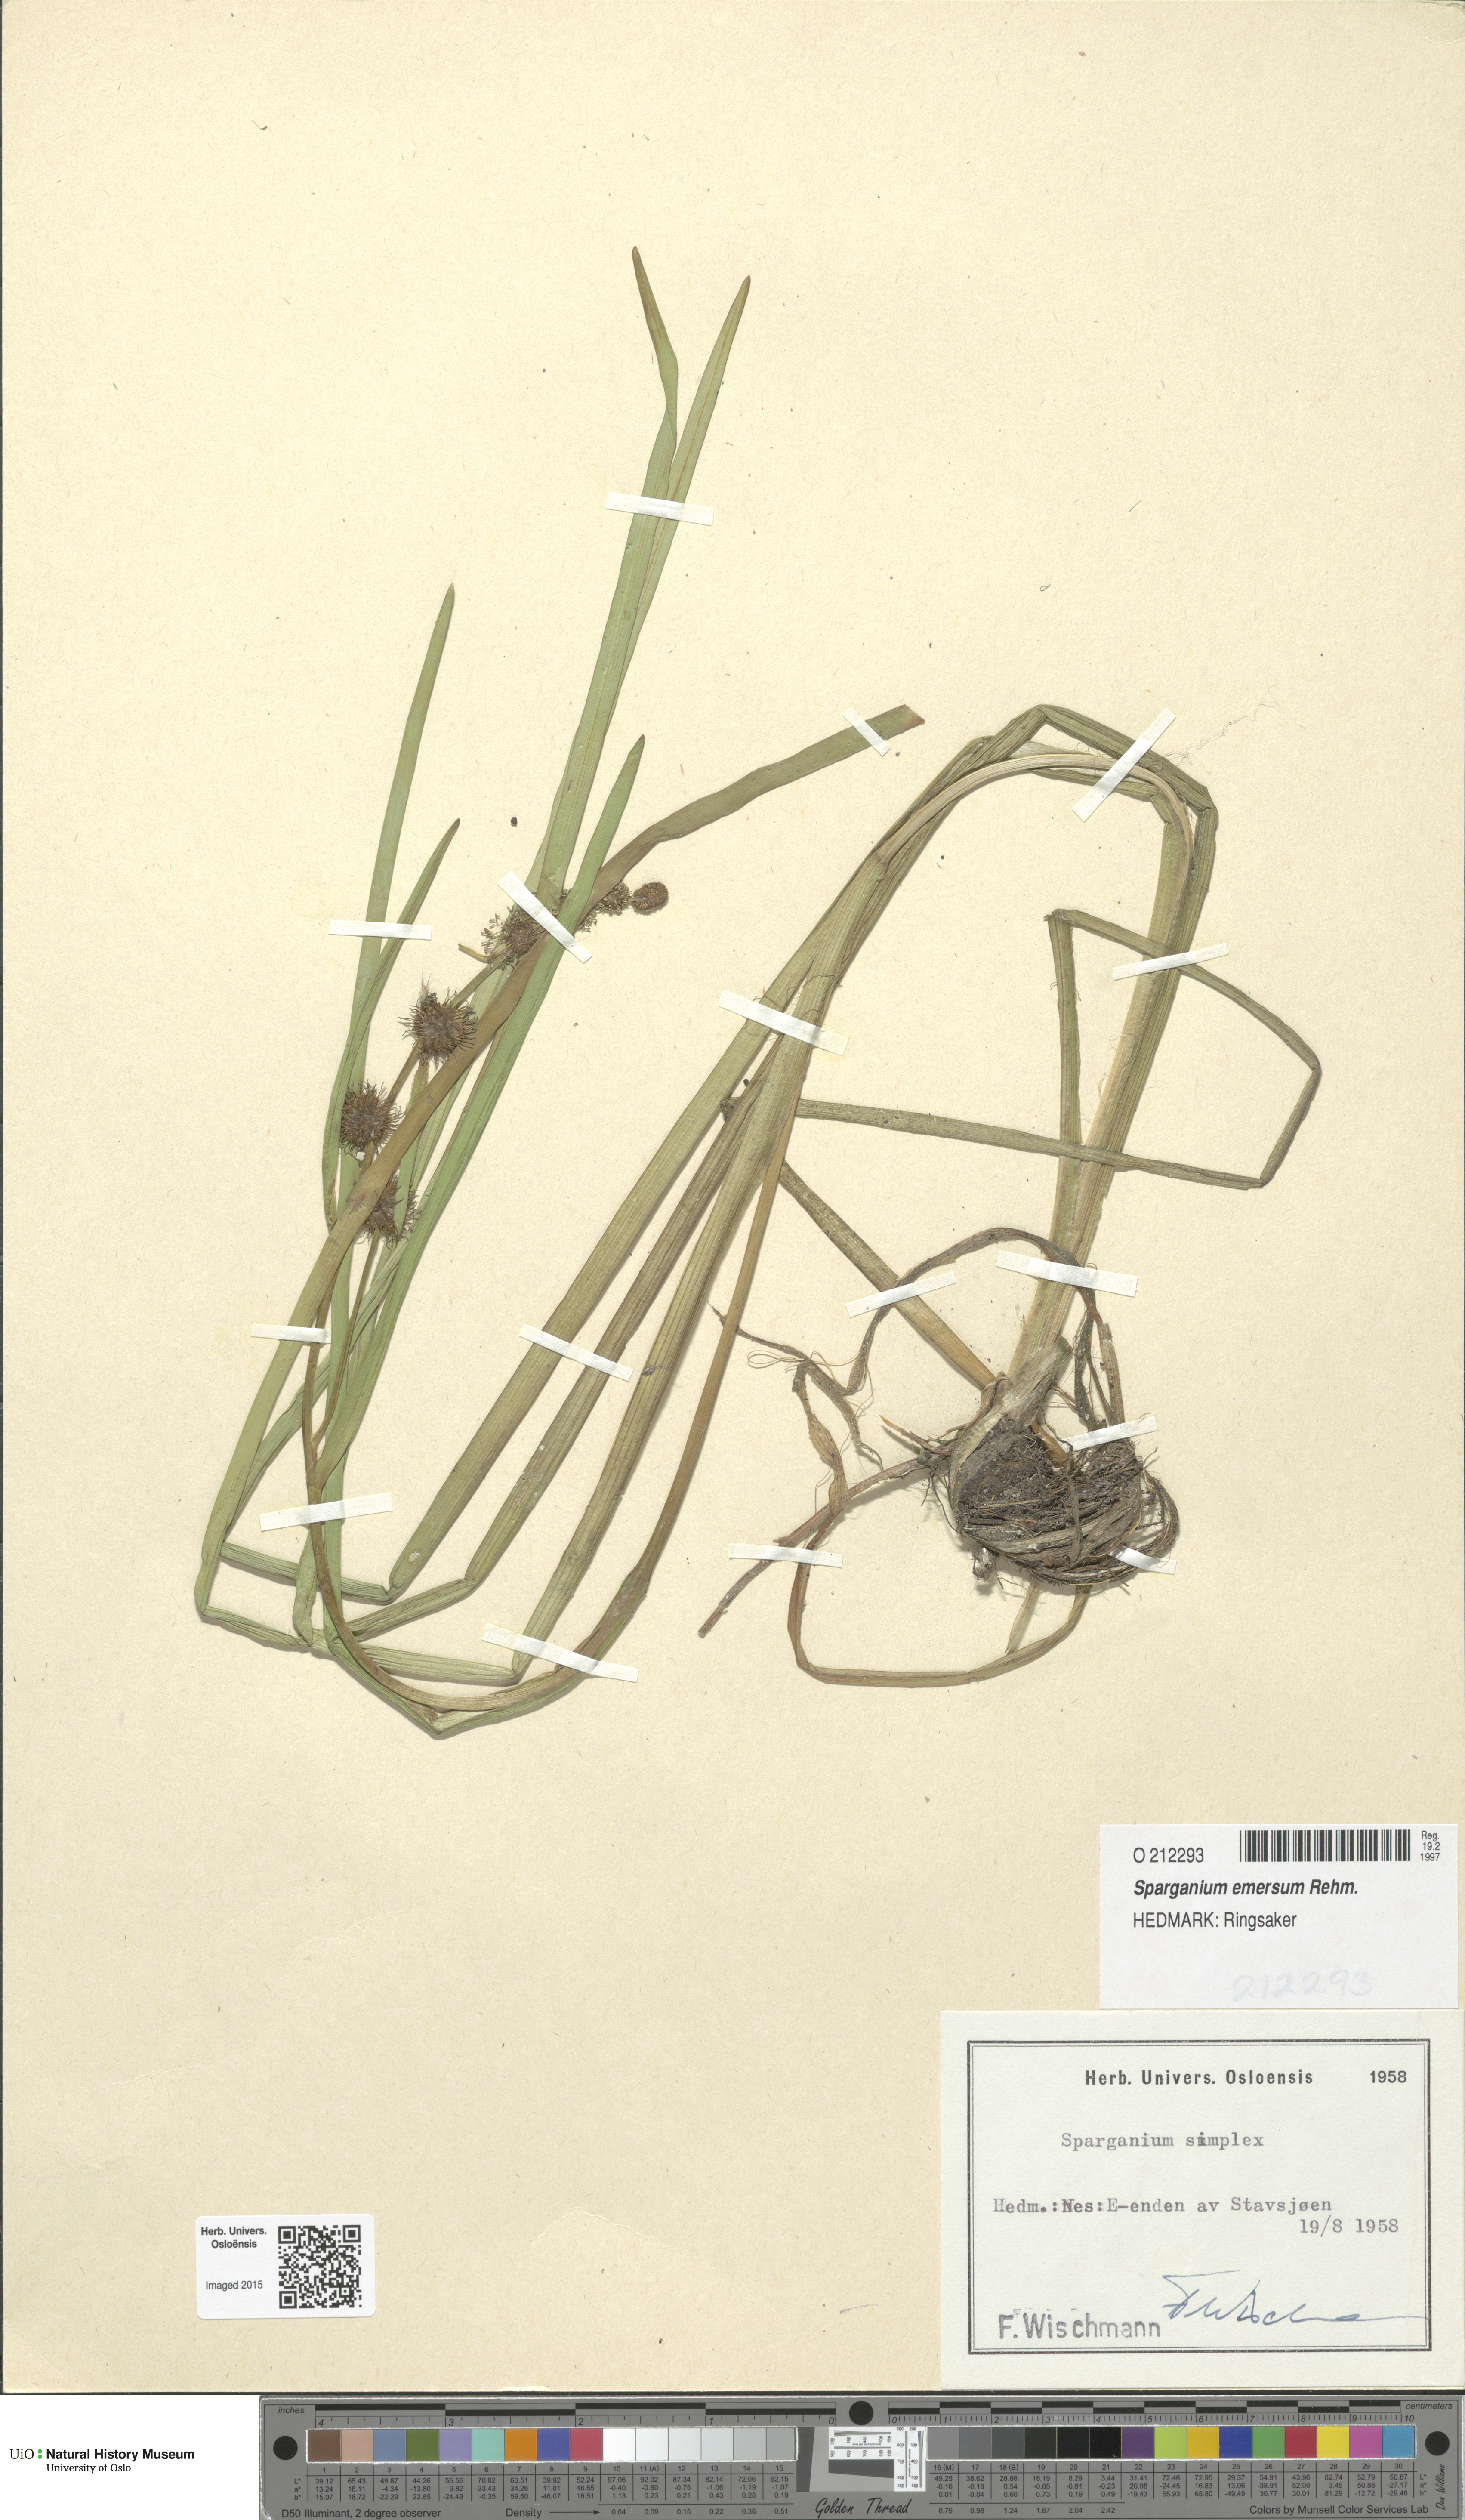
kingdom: Plantae
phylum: Tracheophyta
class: Liliopsida
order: Poales
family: Typhaceae
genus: Sparganium
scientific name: Sparganium emersum
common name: Unbranched bur-reed
